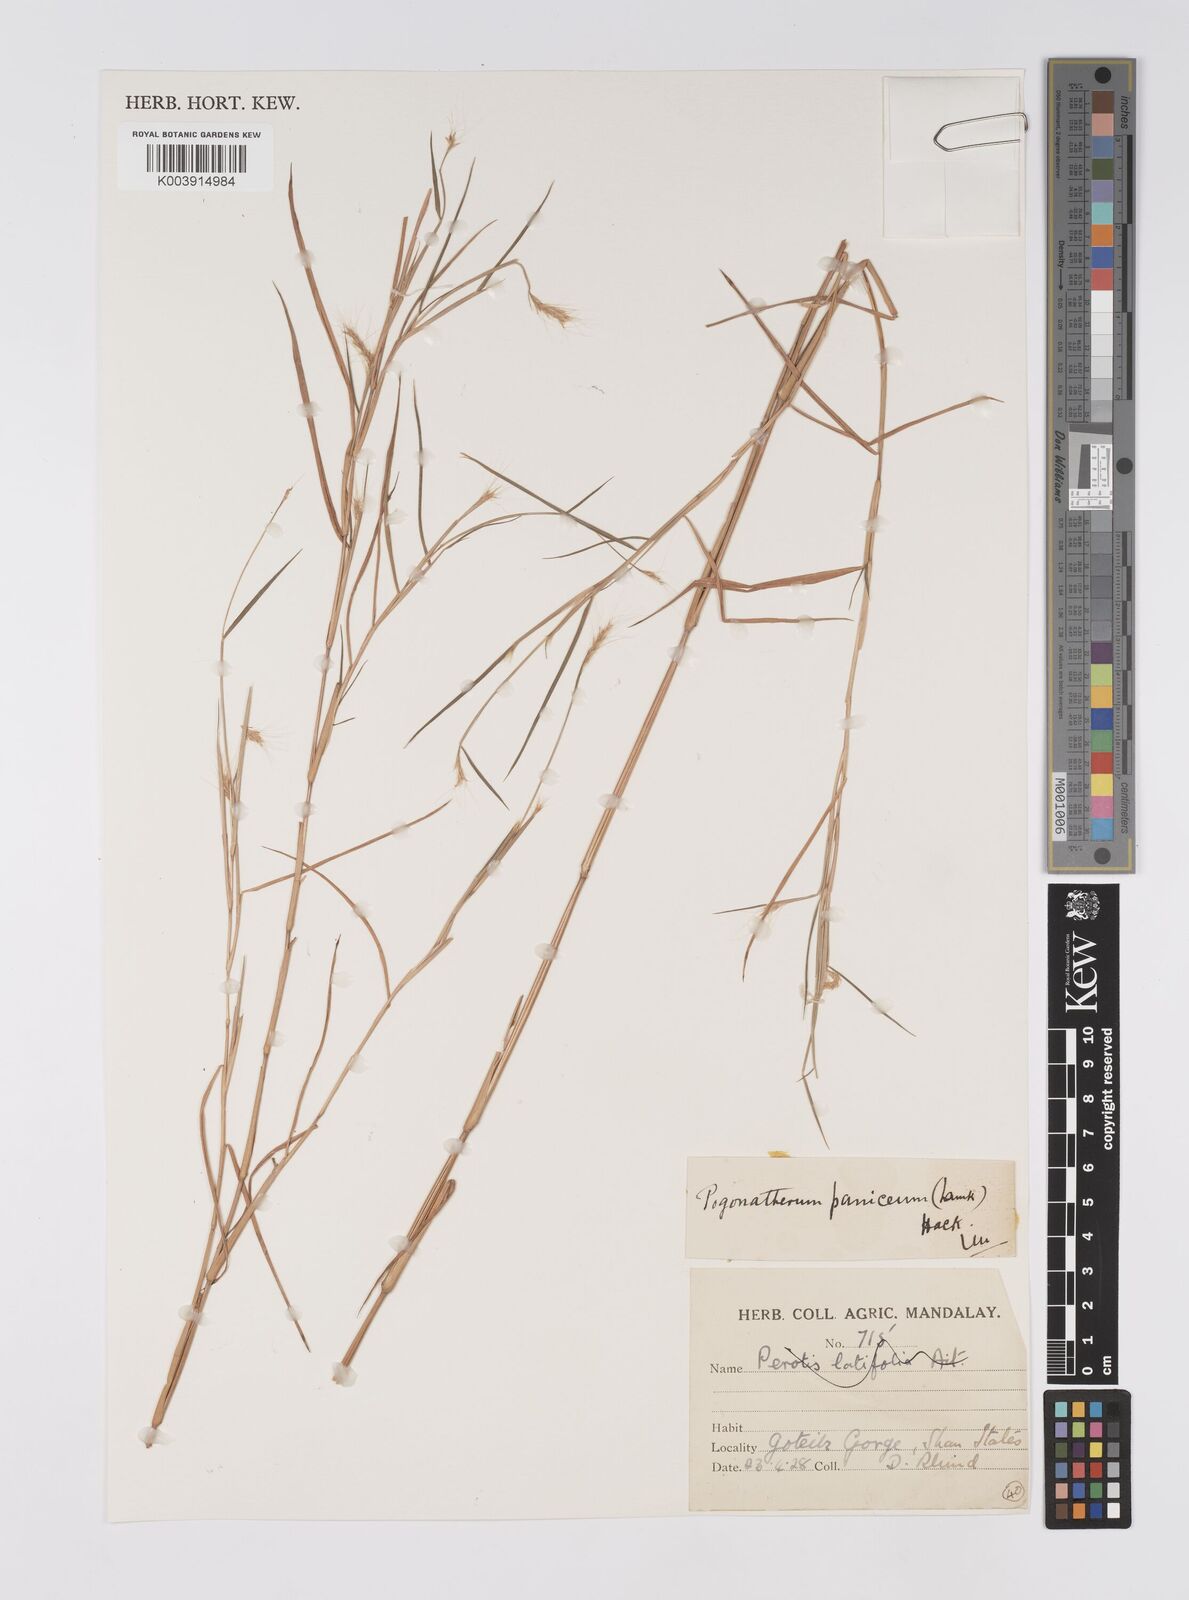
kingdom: Plantae
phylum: Tracheophyta
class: Liliopsida
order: Poales
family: Poaceae
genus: Pogonatherum
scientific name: Pogonatherum paniceum
